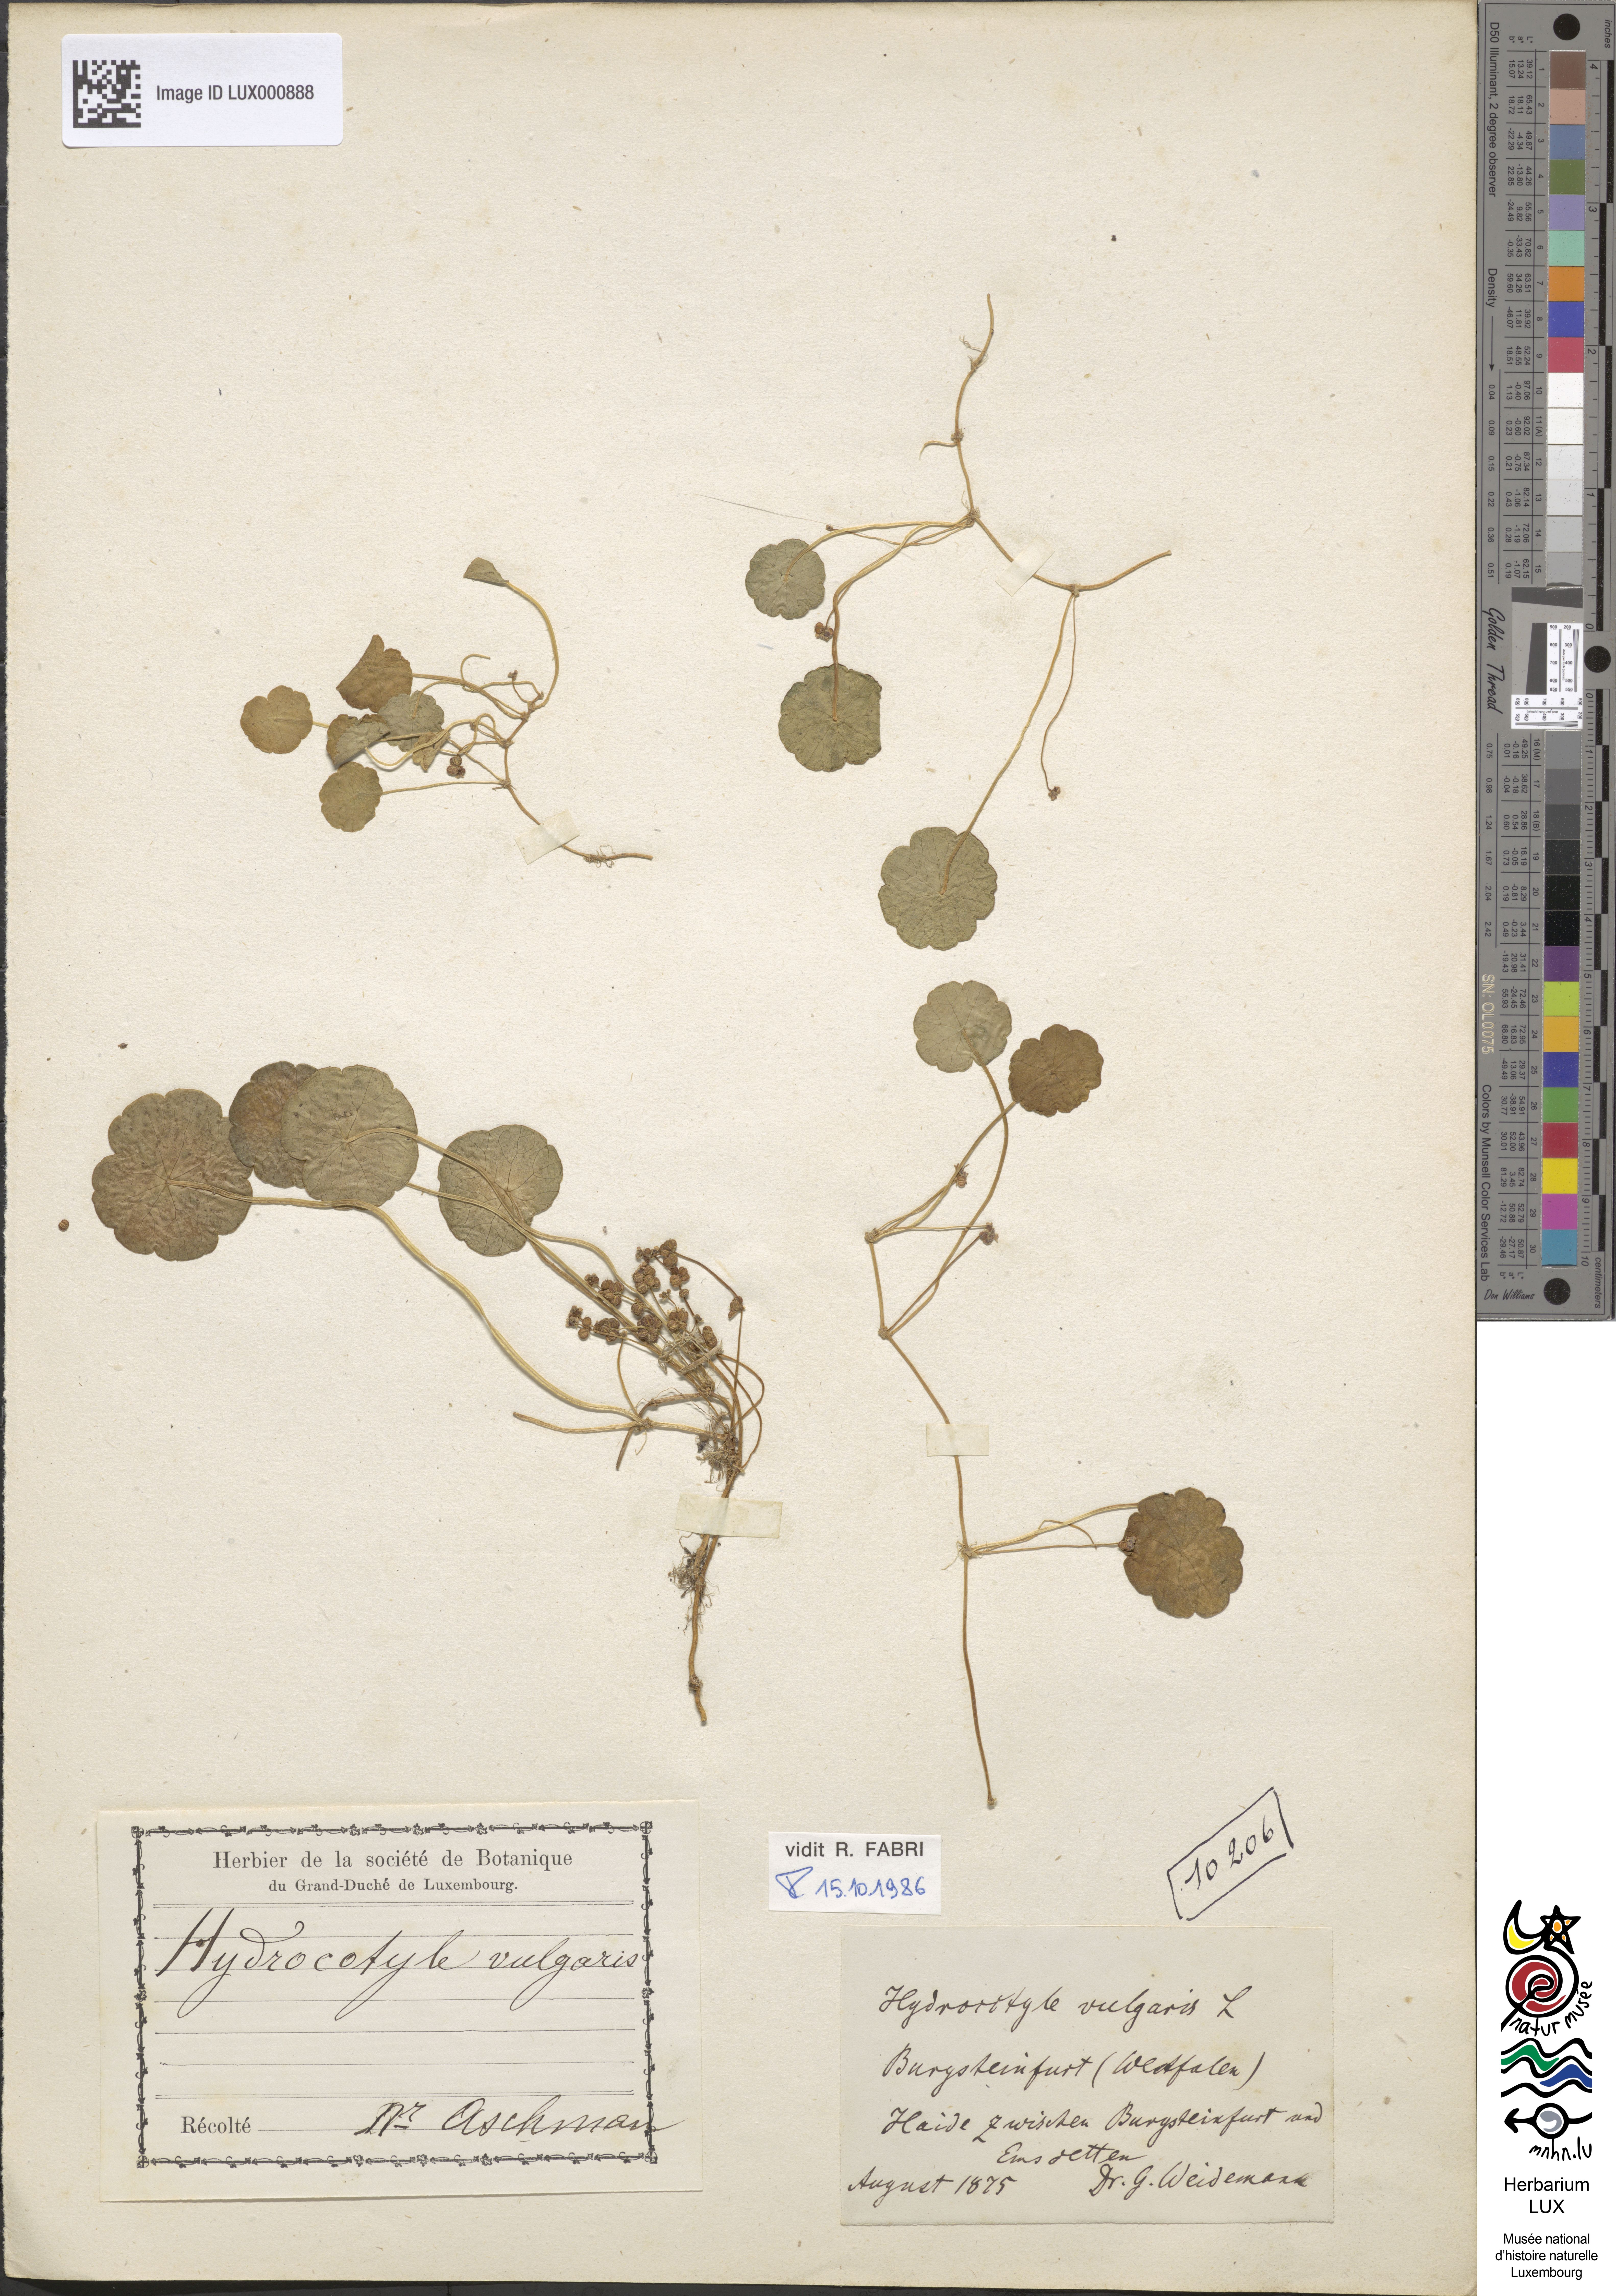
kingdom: Plantae
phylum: Tracheophyta
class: Magnoliopsida
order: Apiales
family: Araliaceae
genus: Hydrocotyle
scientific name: Hydrocotyle vulgaris
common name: Marsh pennywort
